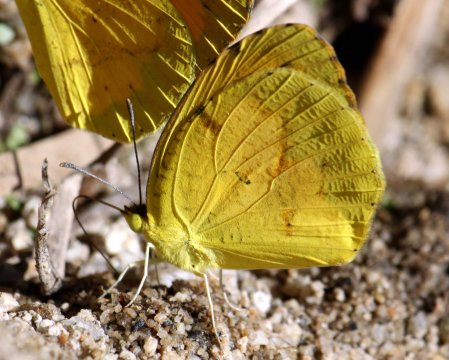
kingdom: Animalia
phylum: Arthropoda
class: Insecta
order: Lepidoptera
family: Pieridae
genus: Abaeis
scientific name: Abaeis nicippe
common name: Sleepy Orange
